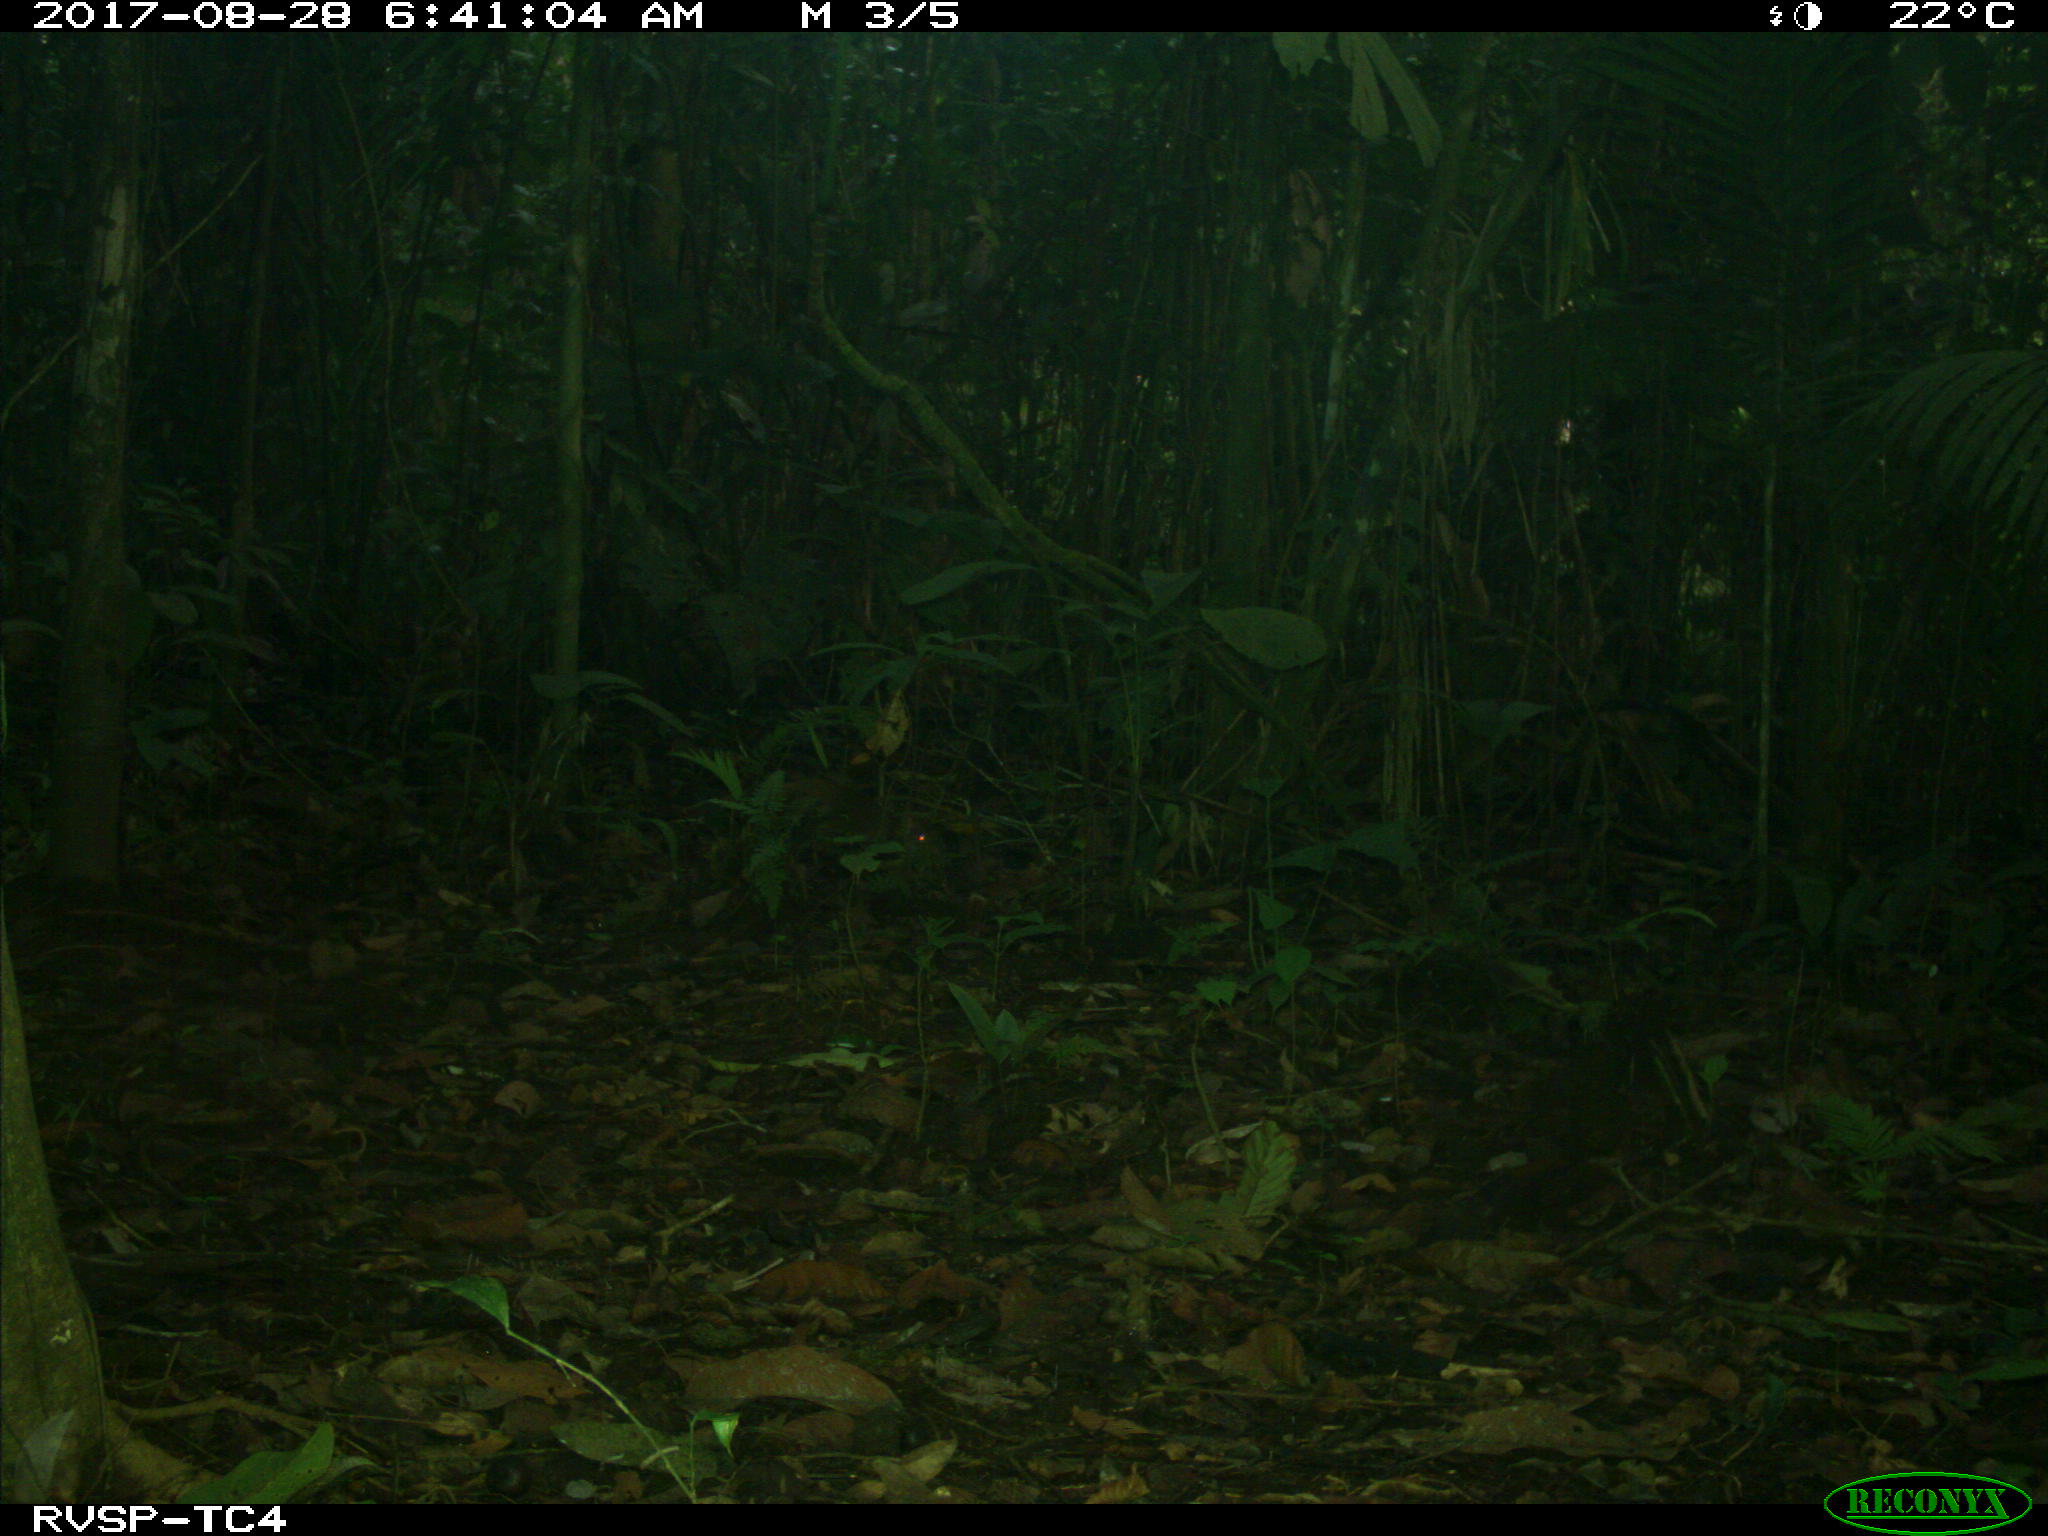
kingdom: Animalia
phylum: Chordata
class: Mammalia
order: Rodentia
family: Dasyproctidae
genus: Dasyprocta
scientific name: Dasyprocta punctata
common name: Central american agouti
